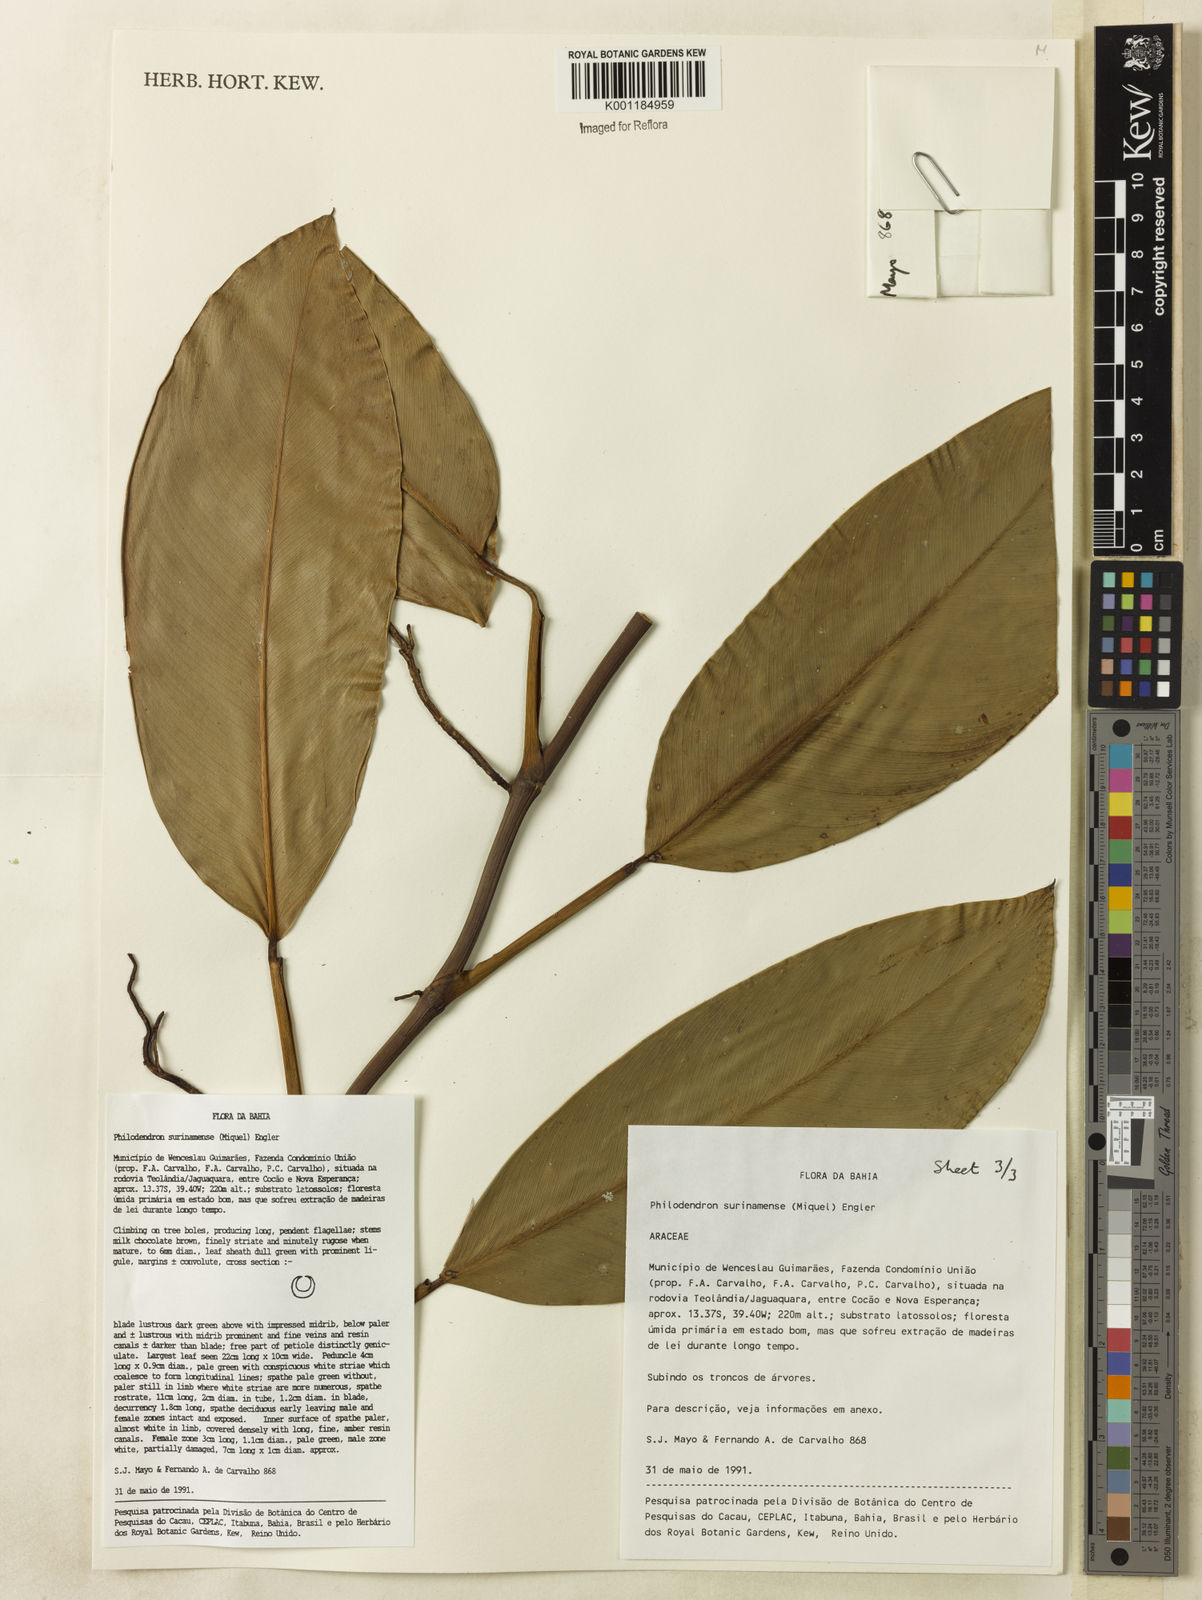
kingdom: Plantae
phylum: Tracheophyta
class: Liliopsida
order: Alismatales
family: Araceae
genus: Philodendron
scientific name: Philodendron surinamense
